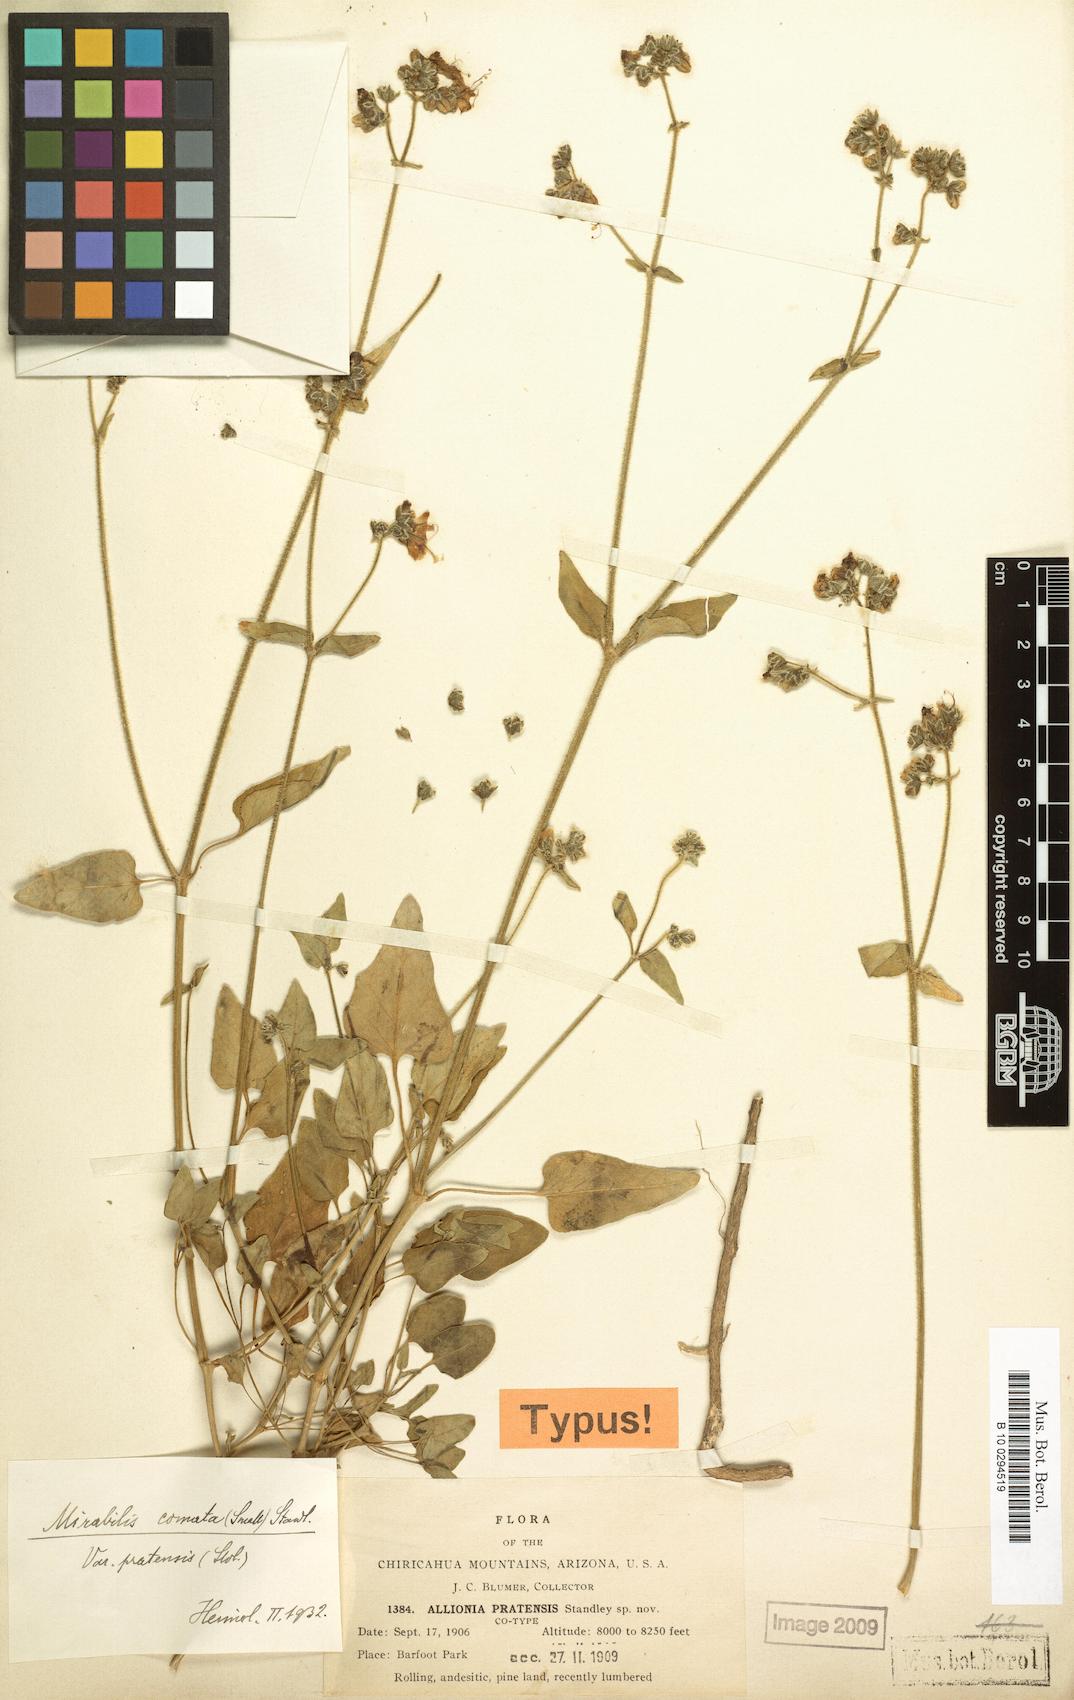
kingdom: Plantae
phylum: Tracheophyta
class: Magnoliopsida
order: Caryophyllales
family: Nyctaginaceae
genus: Mirabilis
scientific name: Mirabilis comata
